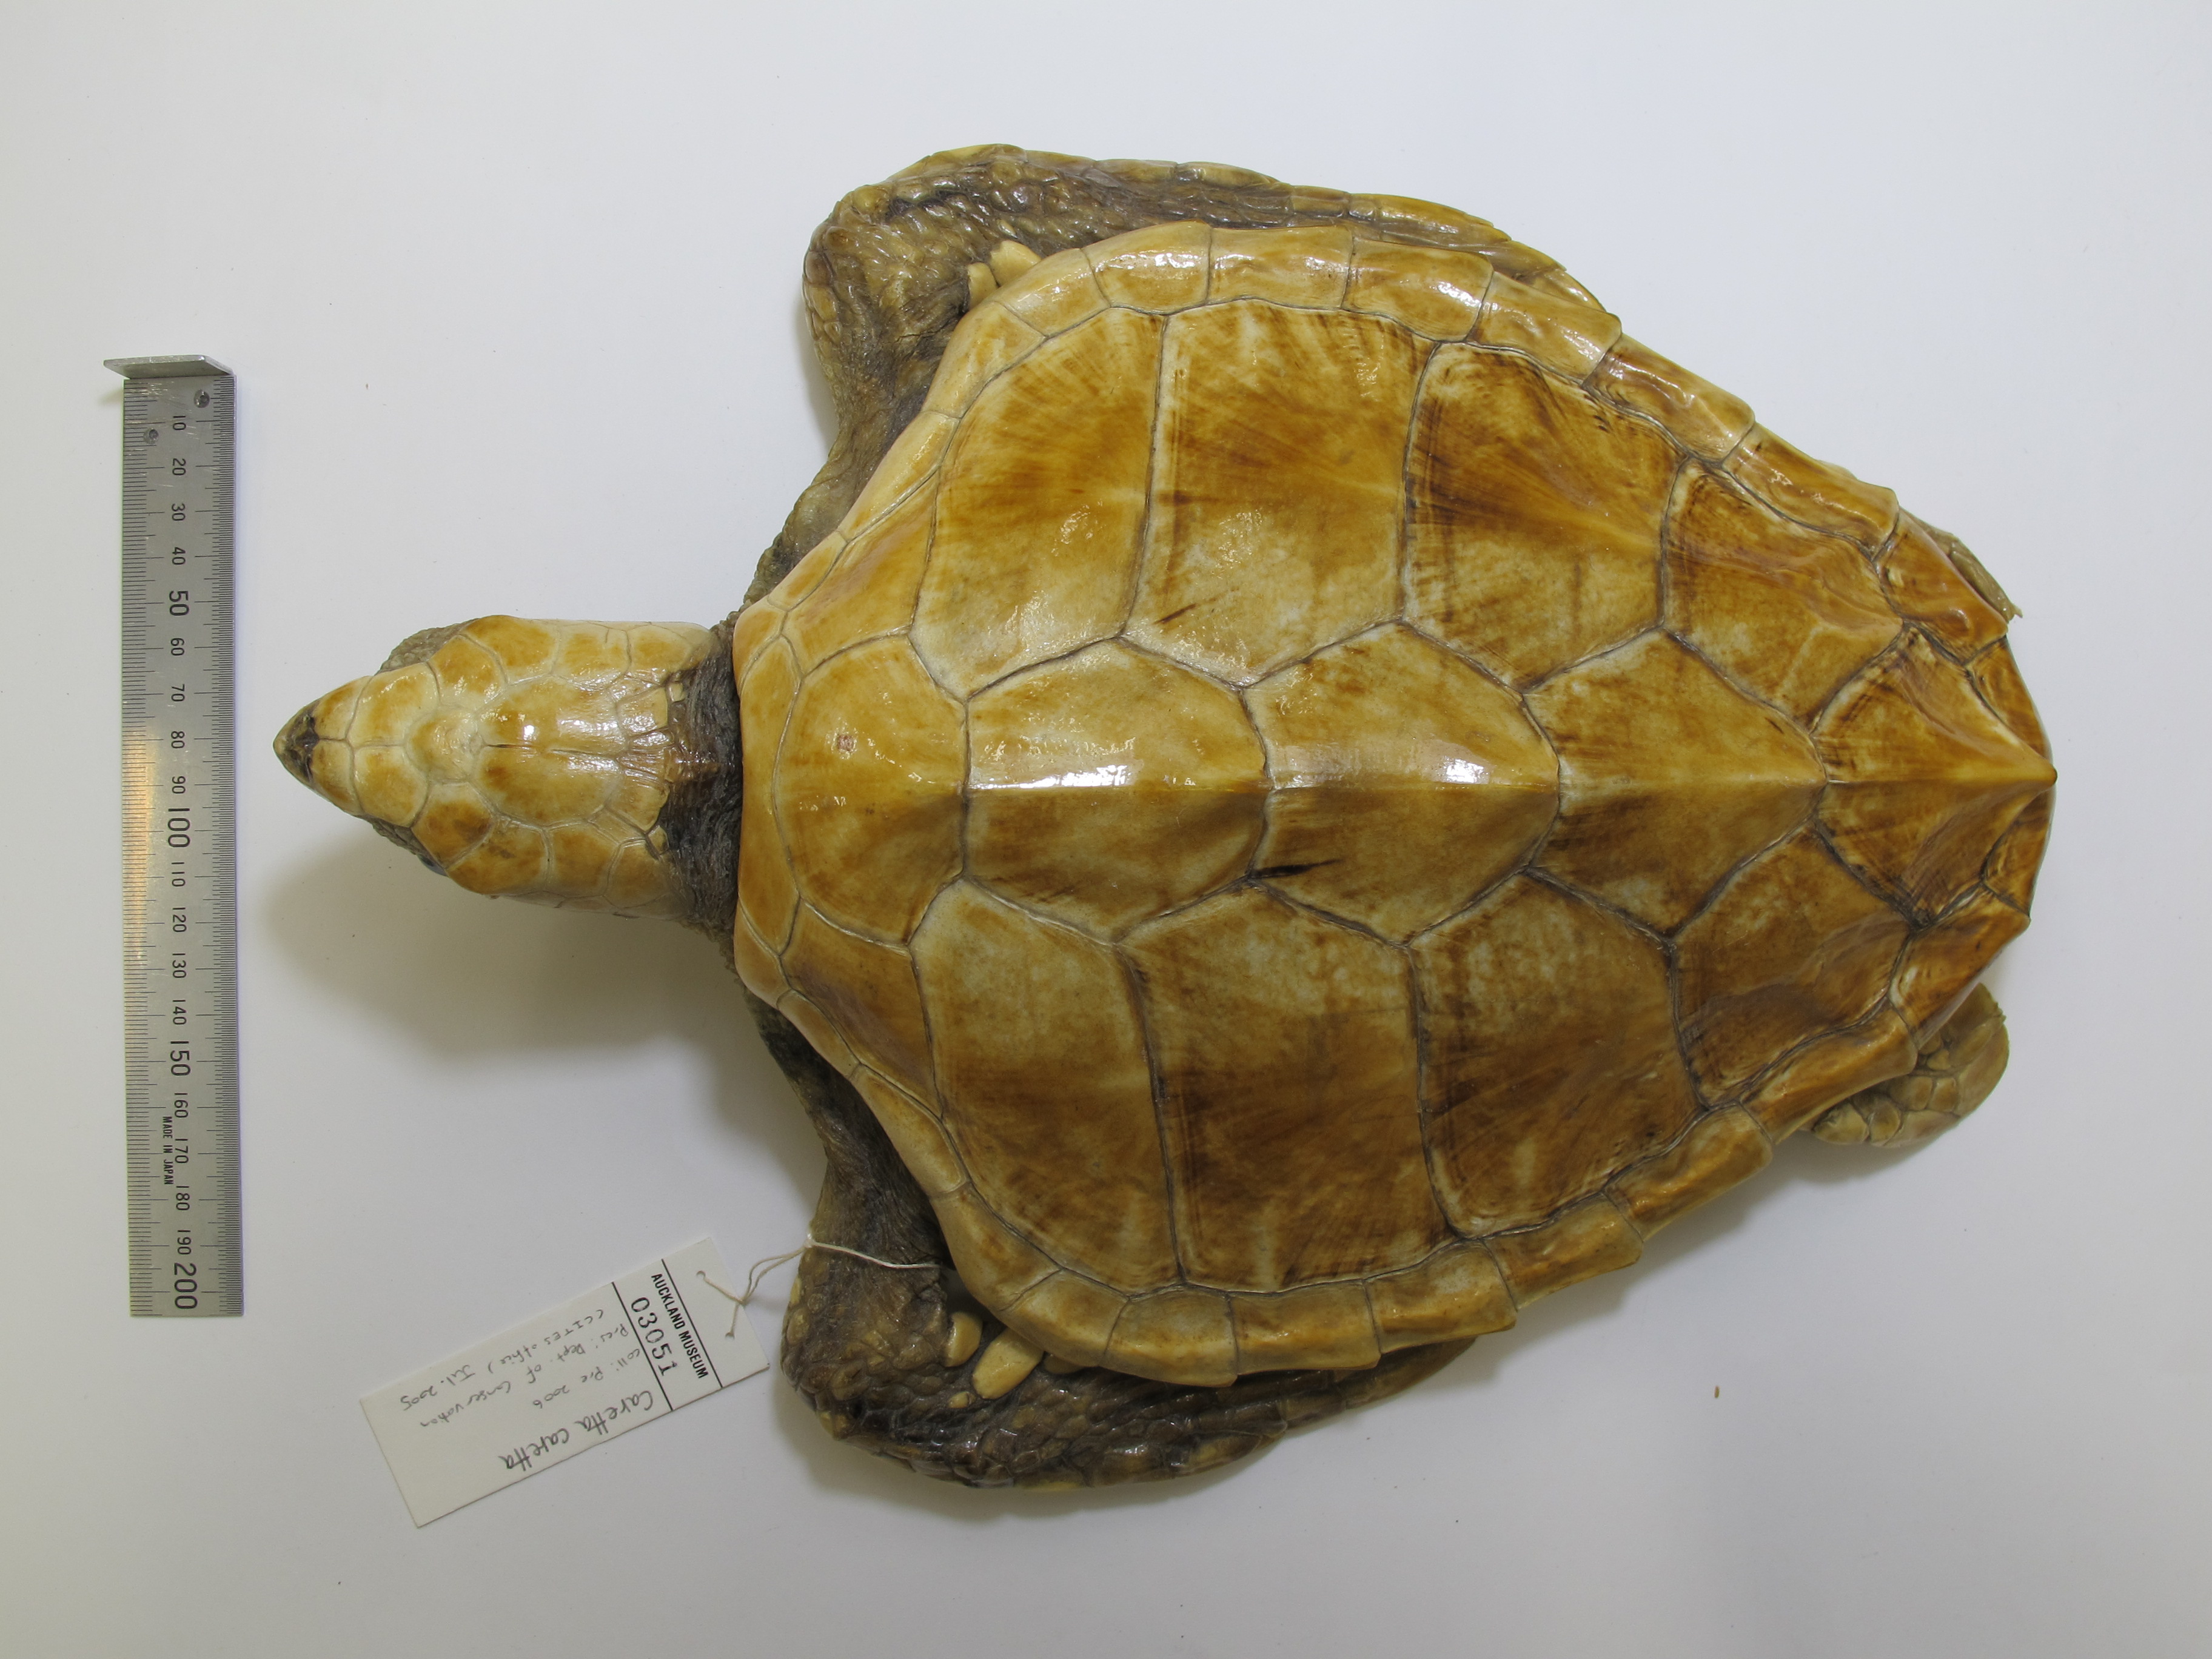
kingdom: Animalia
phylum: Chordata
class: Testudines
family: Cheloniidae
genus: Caretta
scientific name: Caretta caretta
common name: Loggerhead sea turtle
